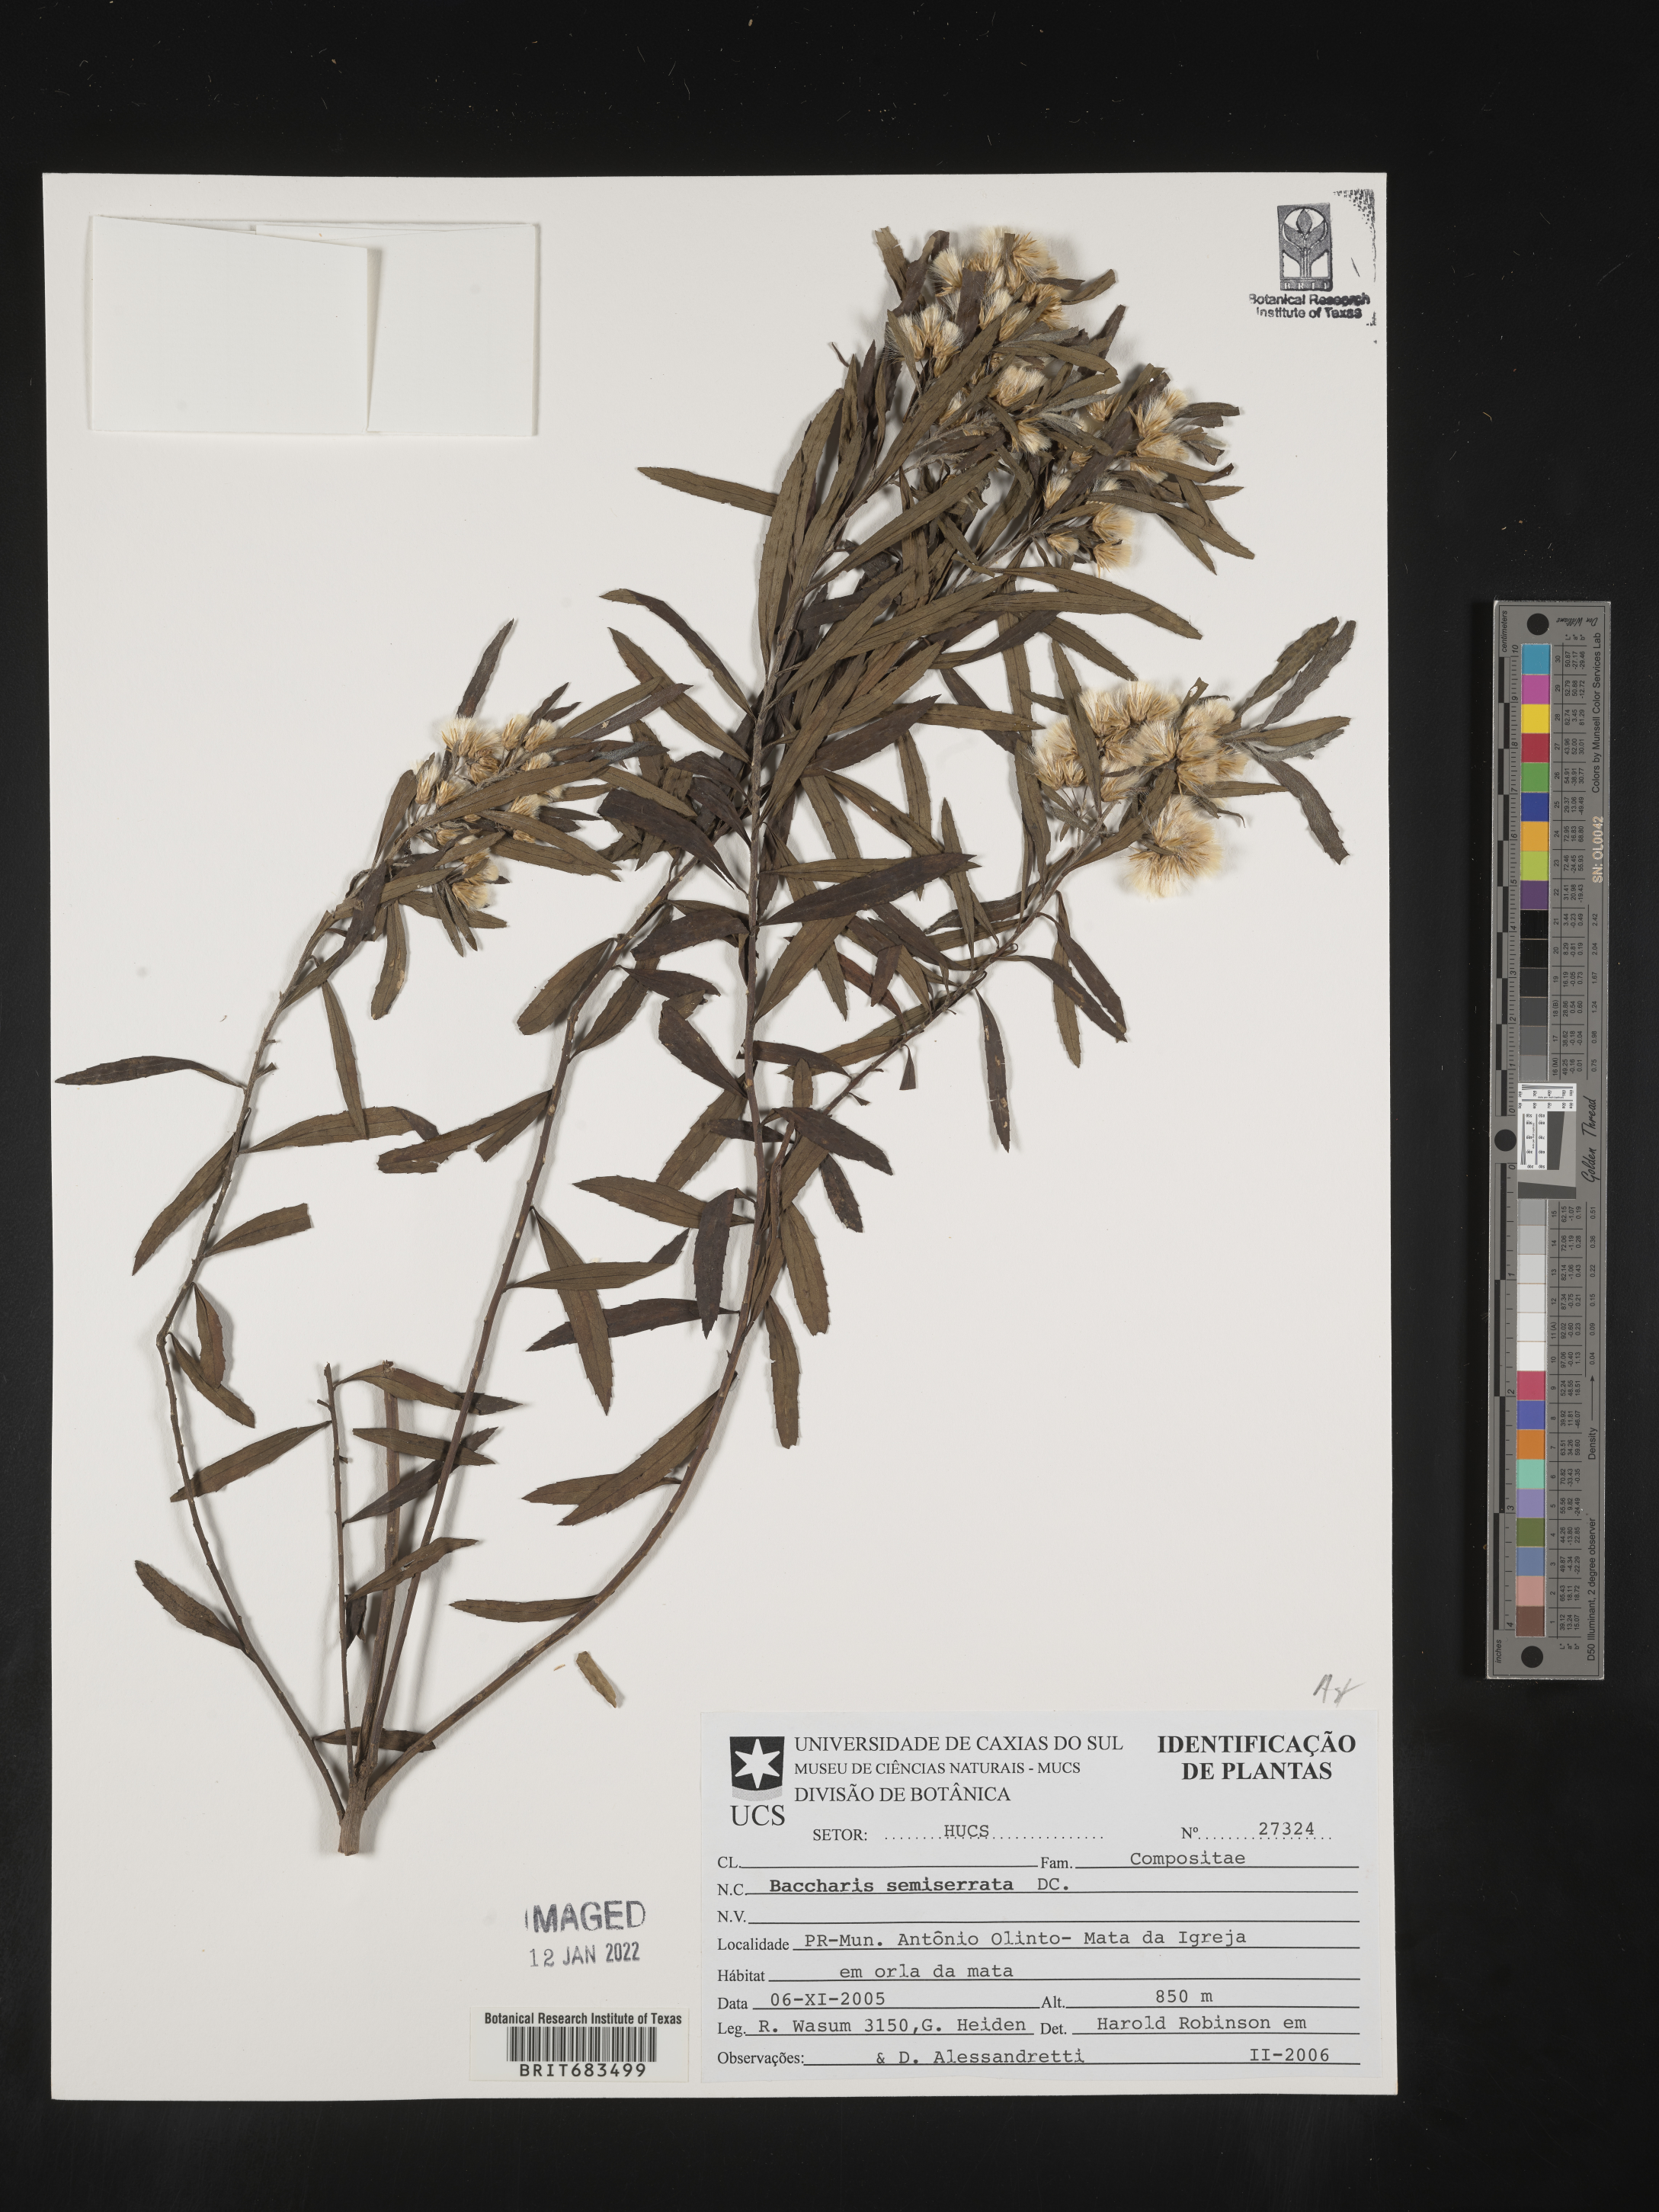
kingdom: Plantae
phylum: Tracheophyta
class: Magnoliopsida
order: Asterales
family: Asteraceae
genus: Baccharis
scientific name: Baccharis
